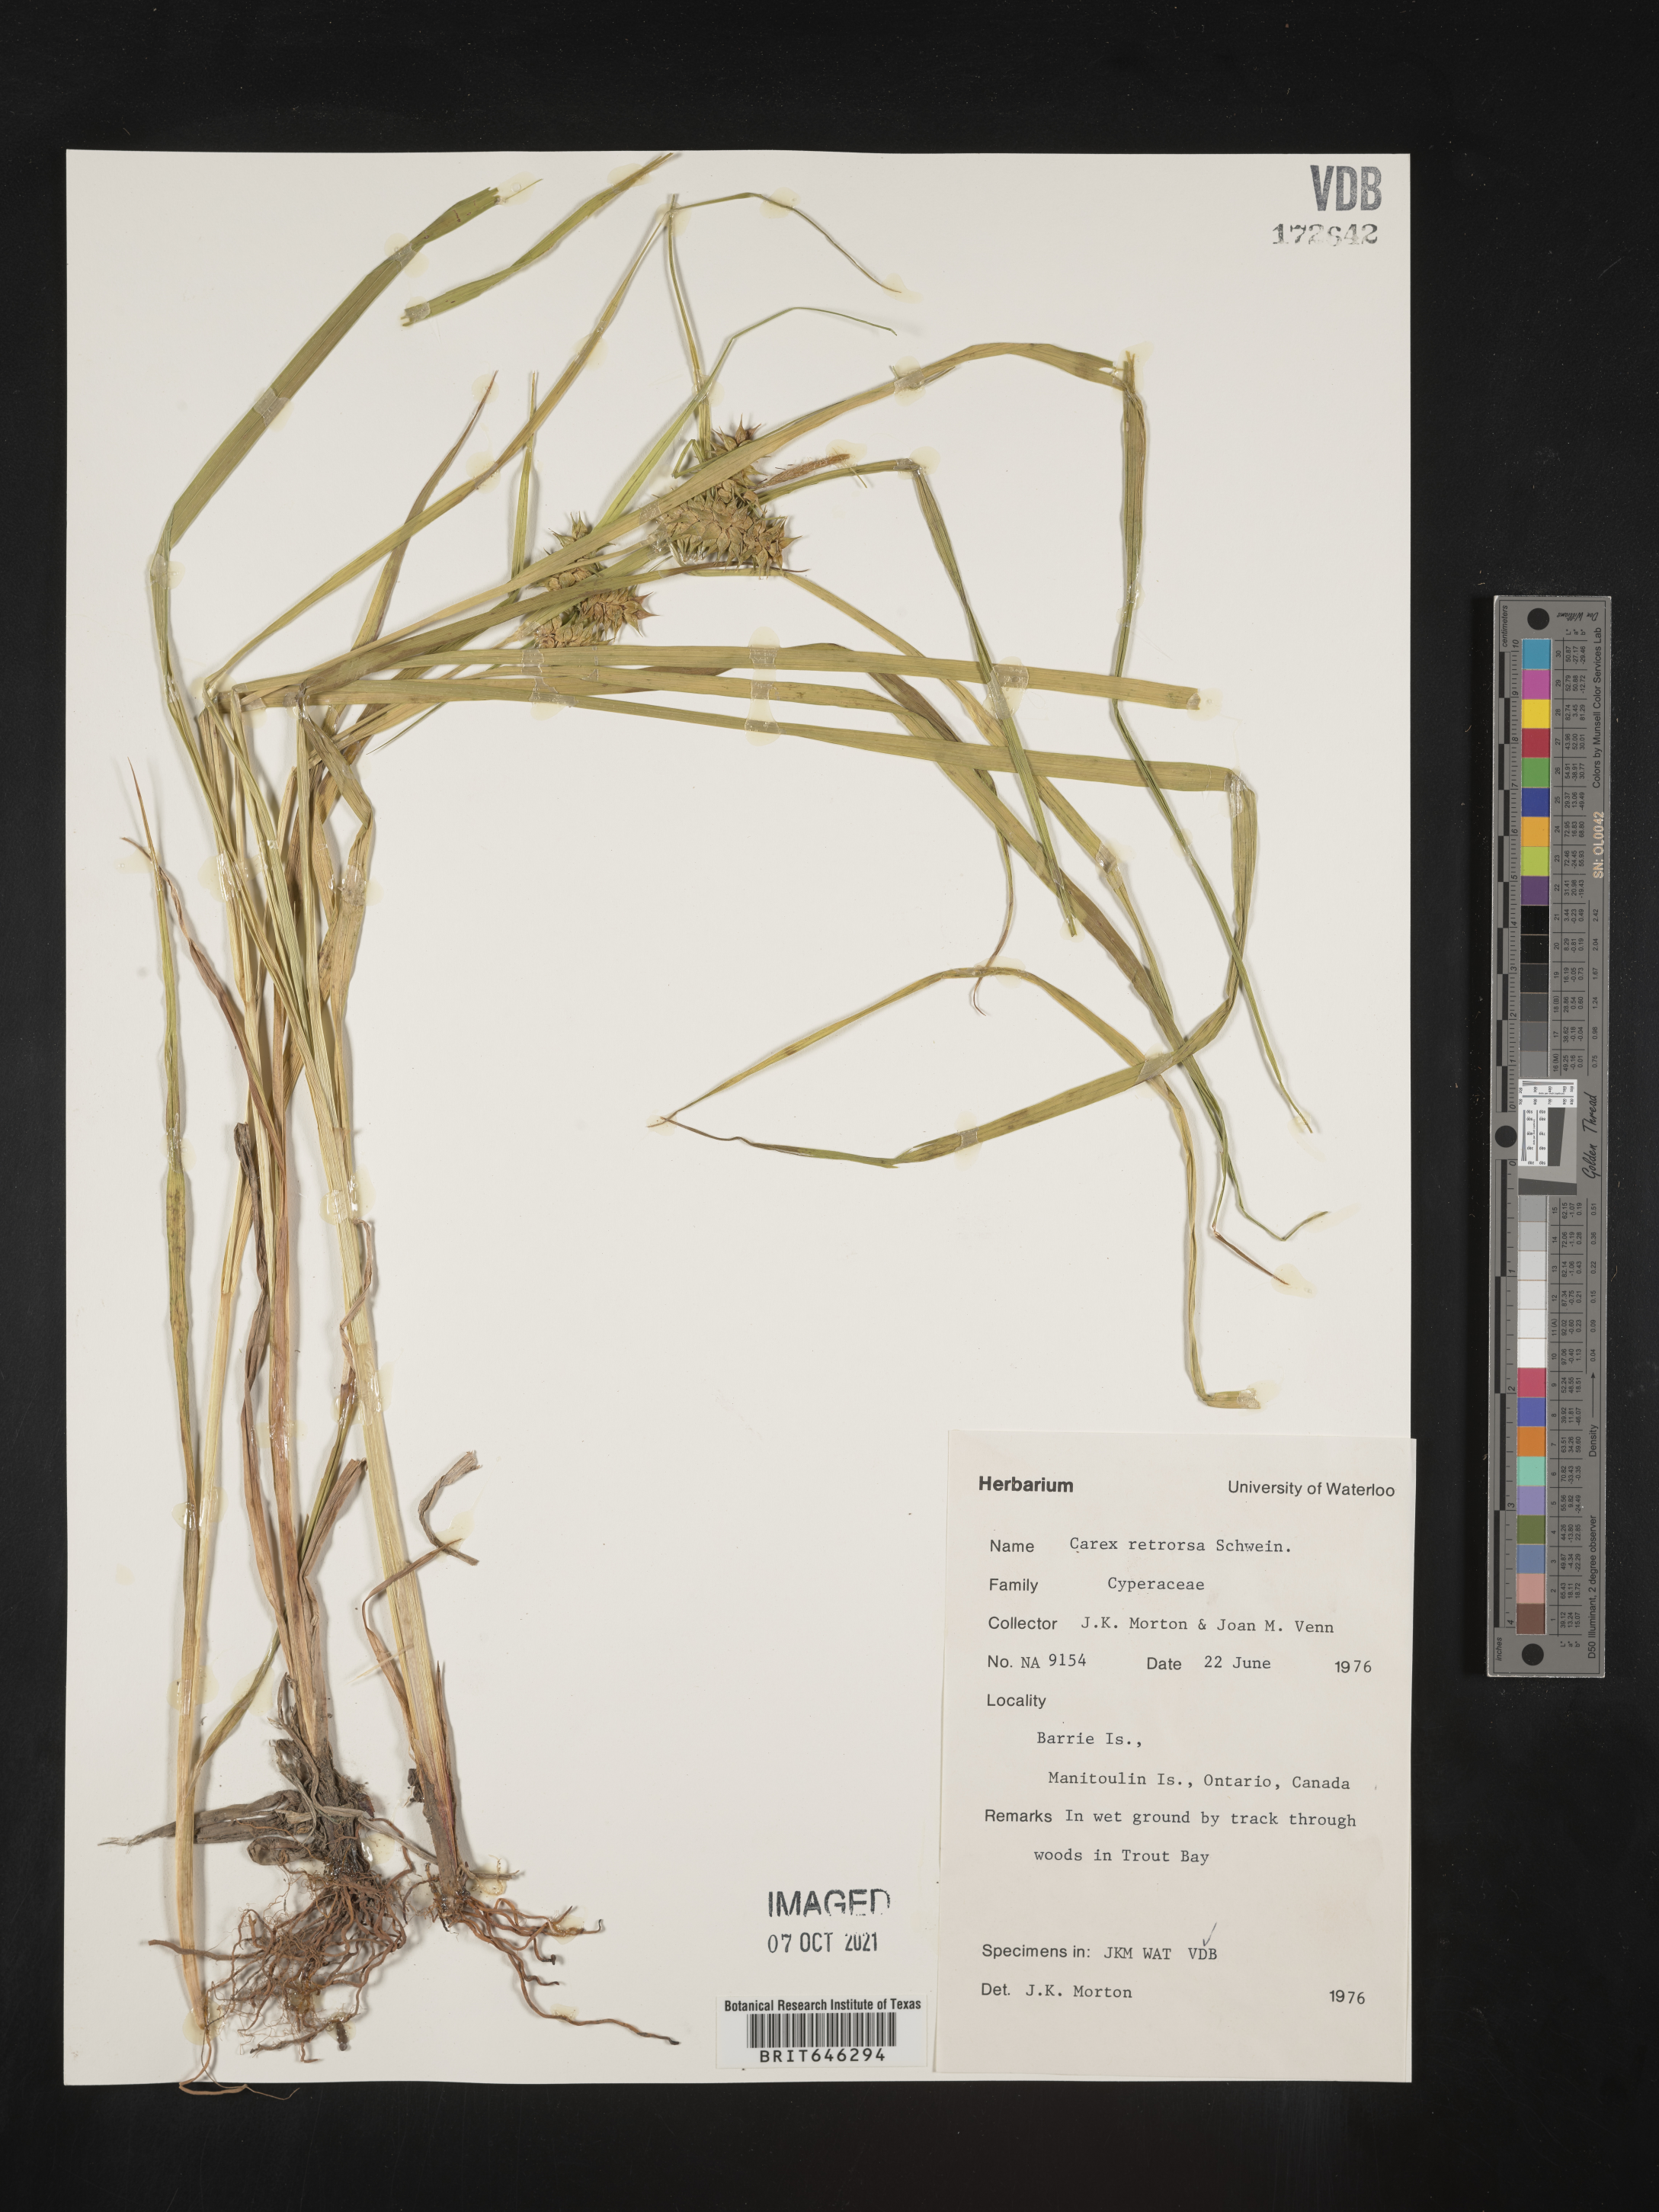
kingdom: Plantae
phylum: Tracheophyta
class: Liliopsida
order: Poales
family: Cyperaceae
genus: Carex
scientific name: Carex retrorsa
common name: Knot-sheath sedge
